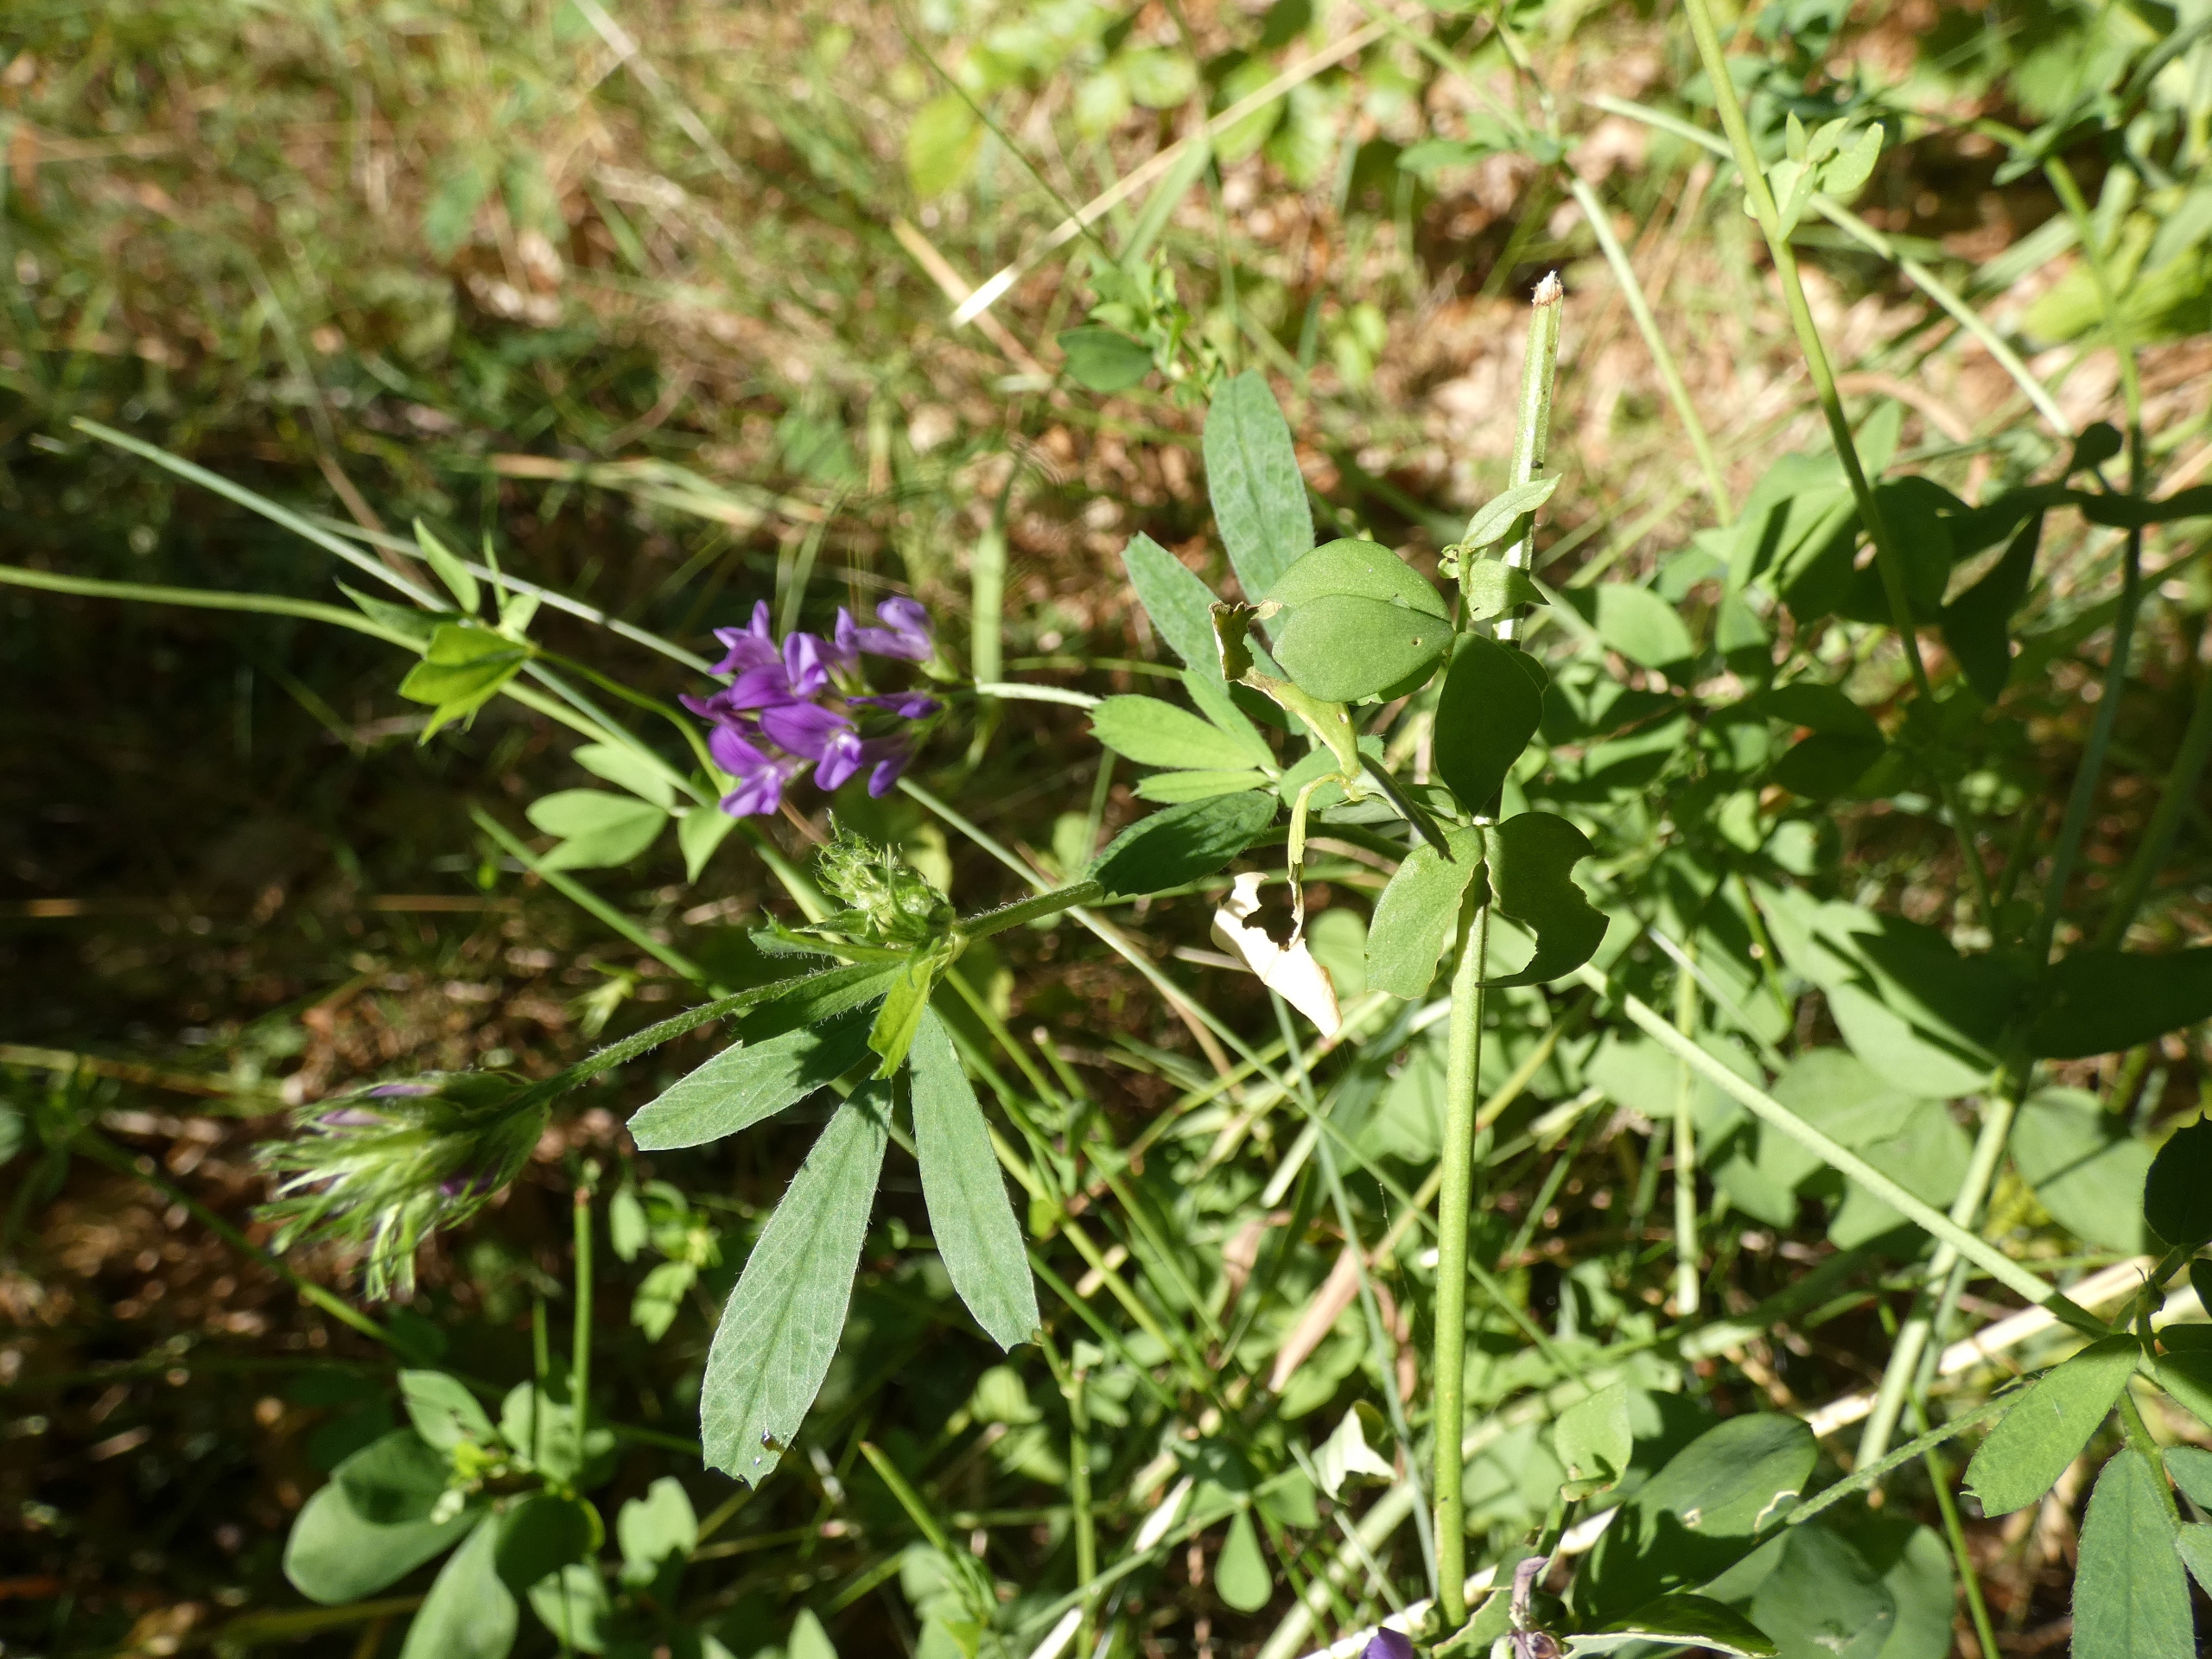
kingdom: Plantae
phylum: Tracheophyta
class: Magnoliopsida
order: Fabales
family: Fabaceae
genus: Medicago
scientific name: Medicago sativa
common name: Foderlucerne
